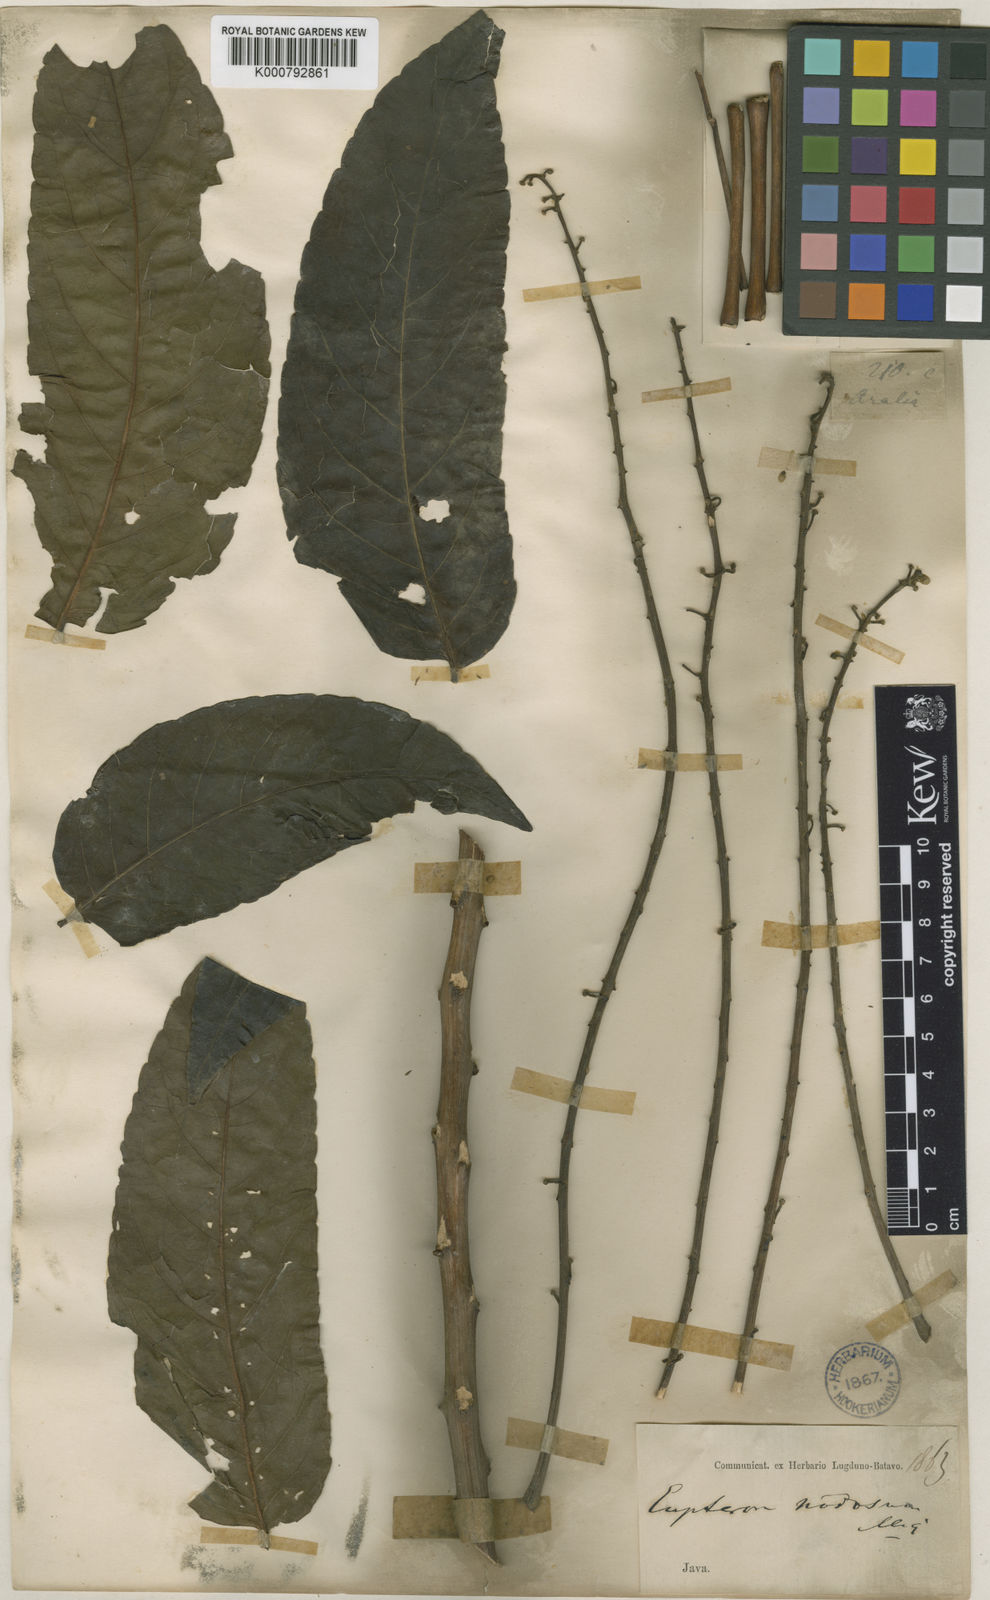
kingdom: Plantae
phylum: Tracheophyta
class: Magnoliopsida
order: Apiales
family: Araliaceae
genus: Polyscias
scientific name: Polyscias nodosa
